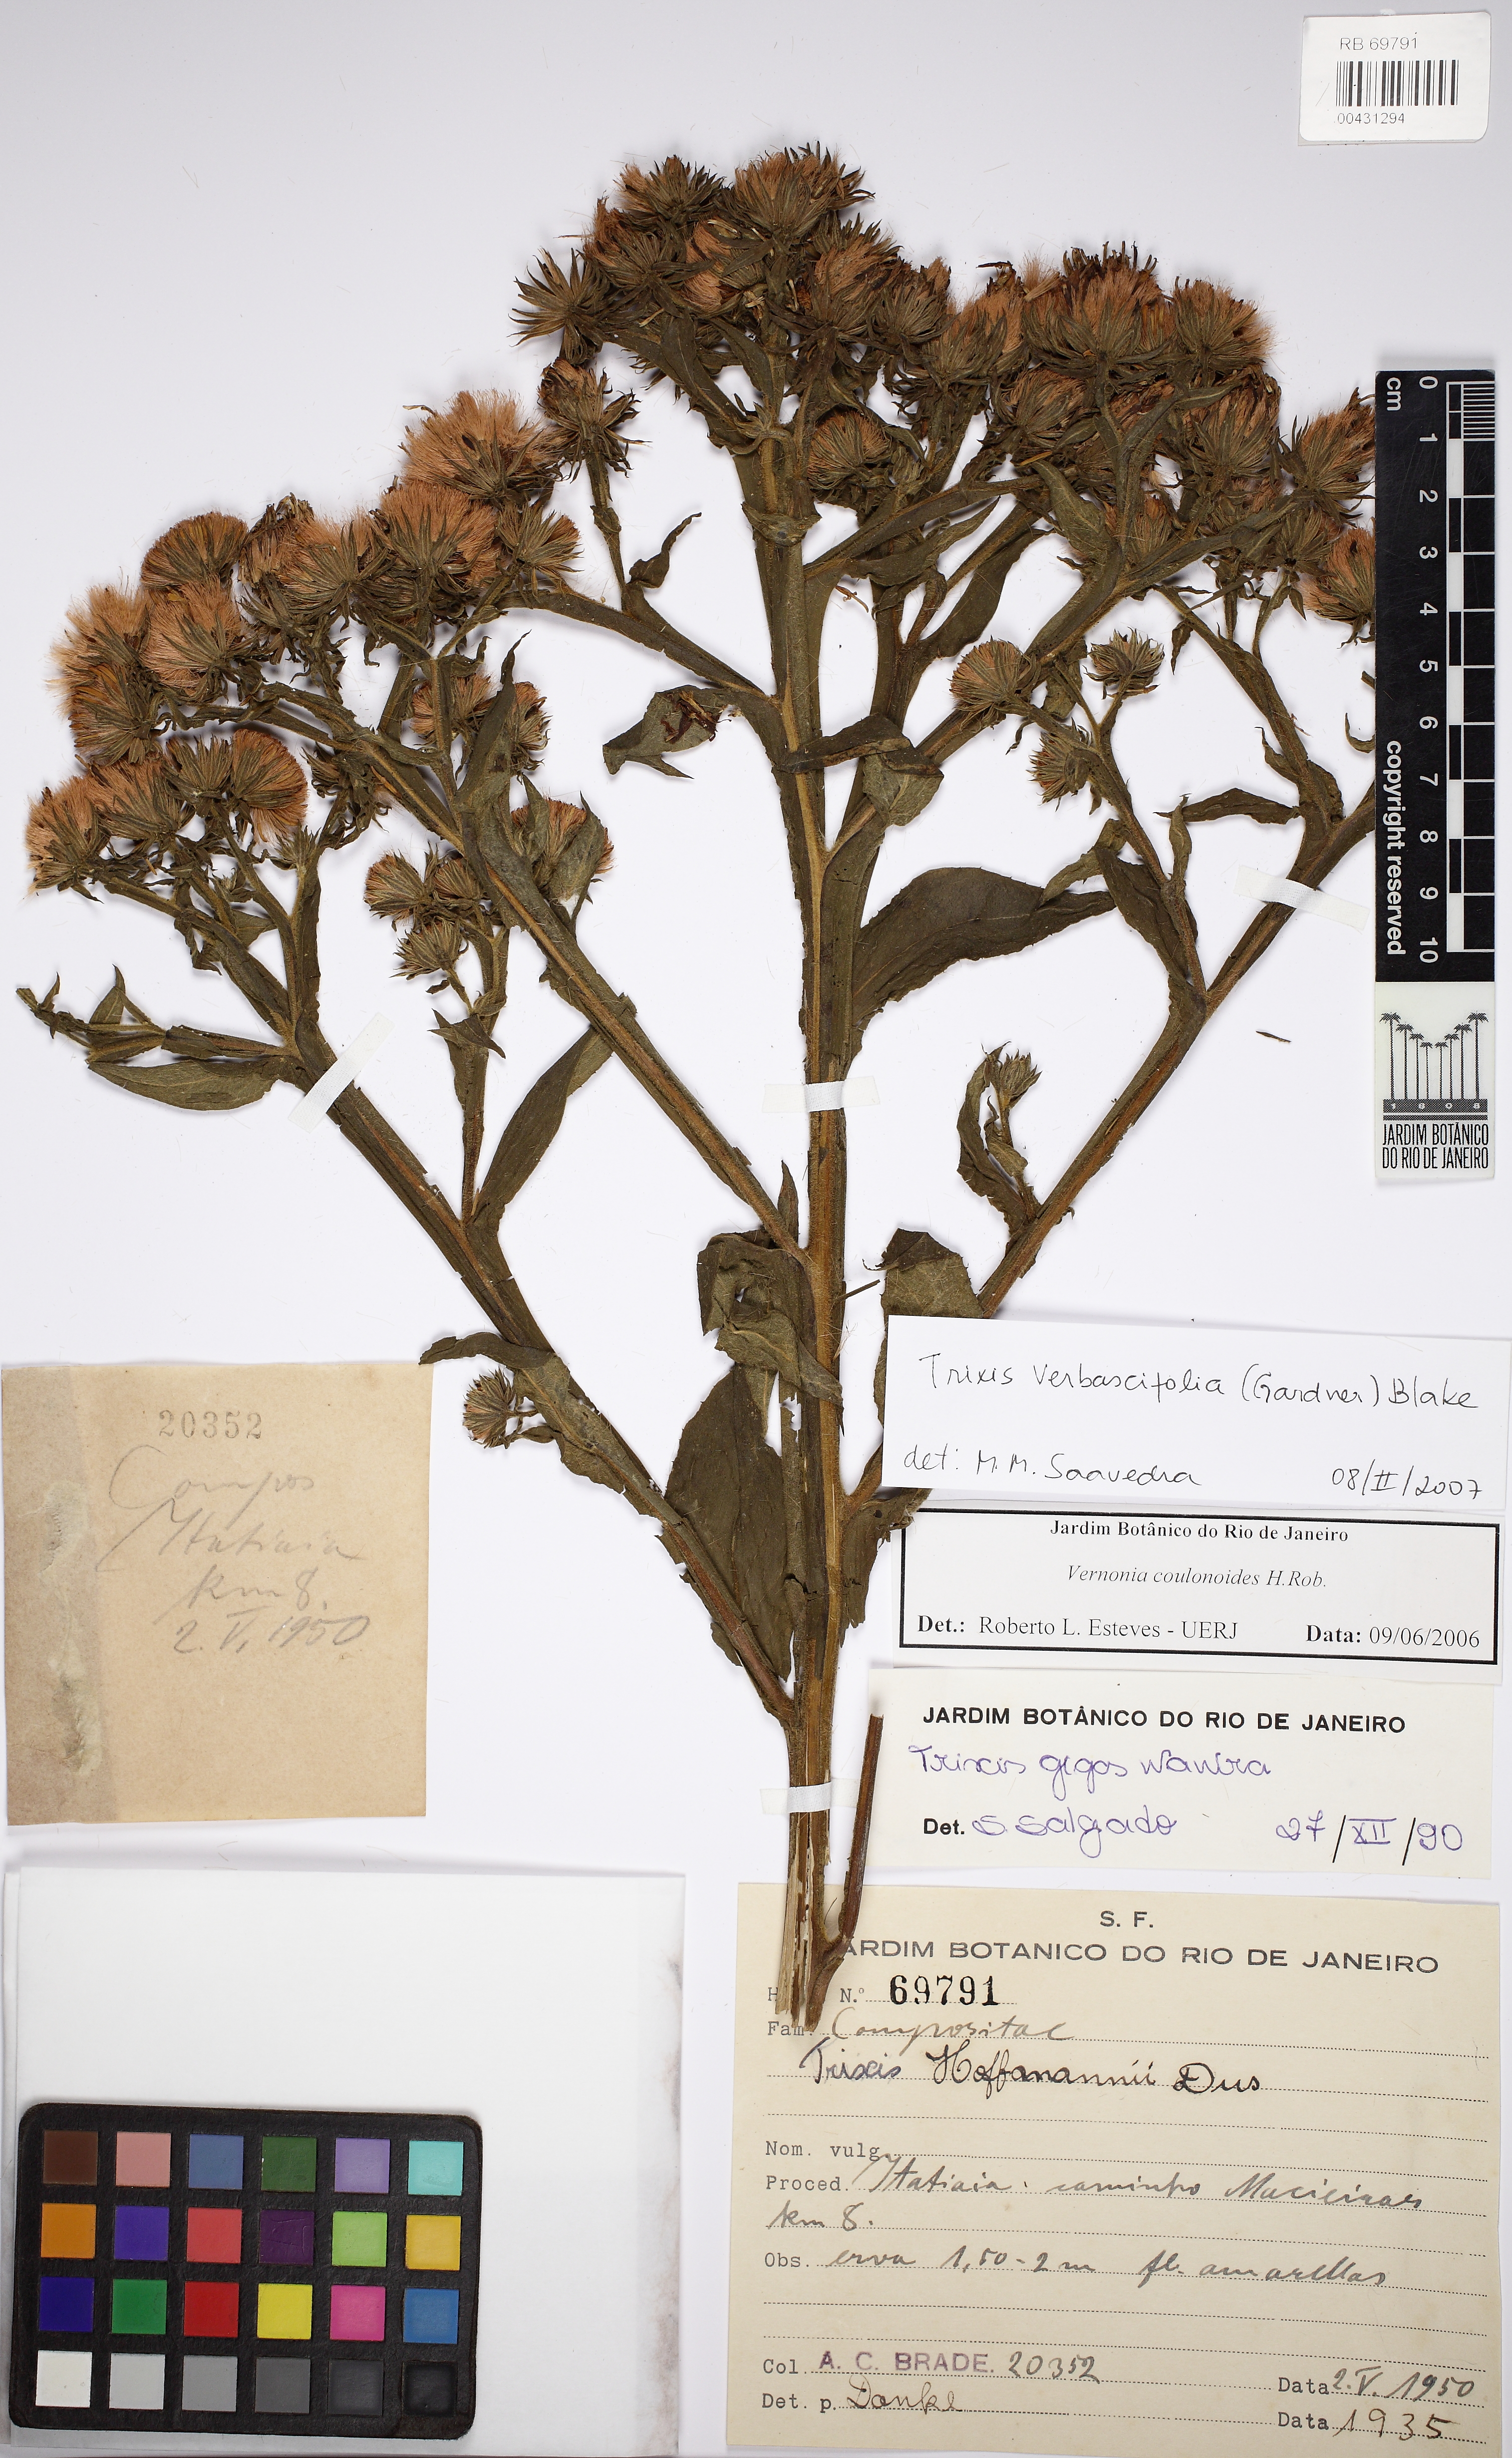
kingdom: Plantae
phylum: Tracheophyta
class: Magnoliopsida
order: Asterales
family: Asteraceae
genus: Trixis
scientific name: Trixis verbascifolia
